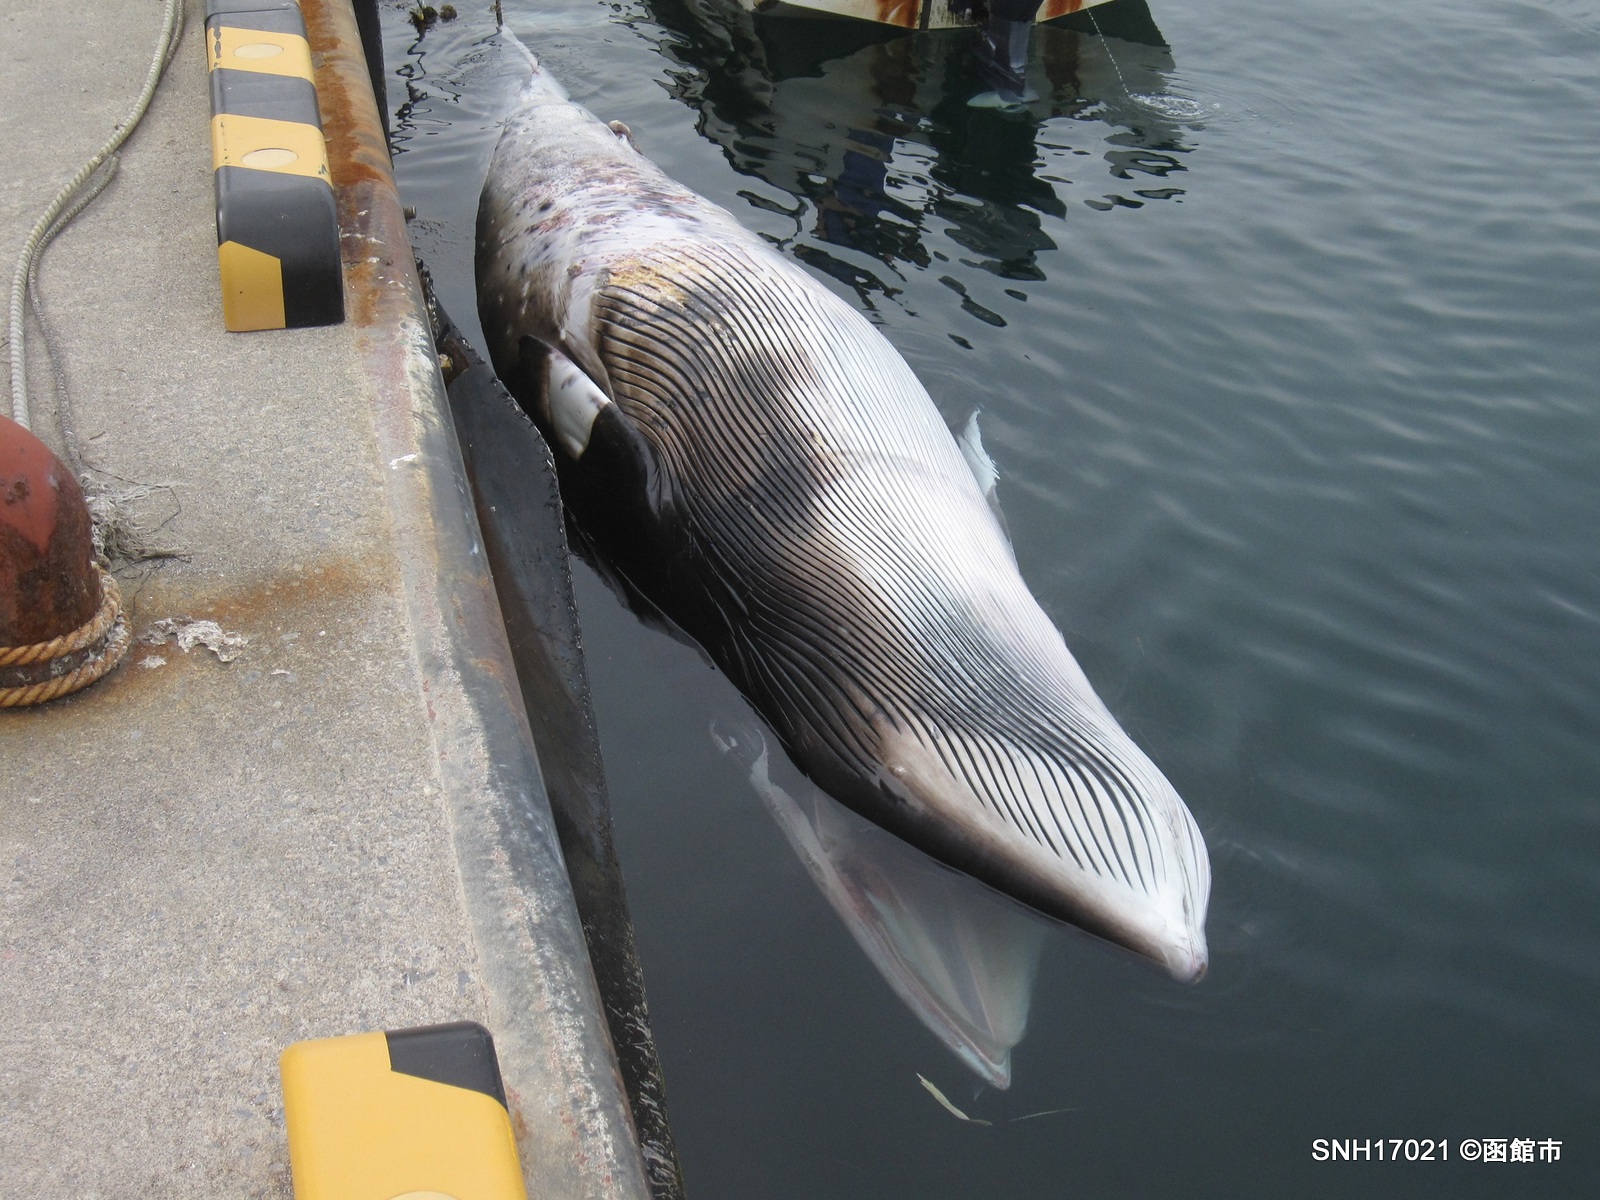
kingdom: Animalia
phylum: Chordata
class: Mammalia
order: Cetacea
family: Balaenopteridae
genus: Balaenoptera
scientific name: Balaenoptera acutorostrata
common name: Minke whale
